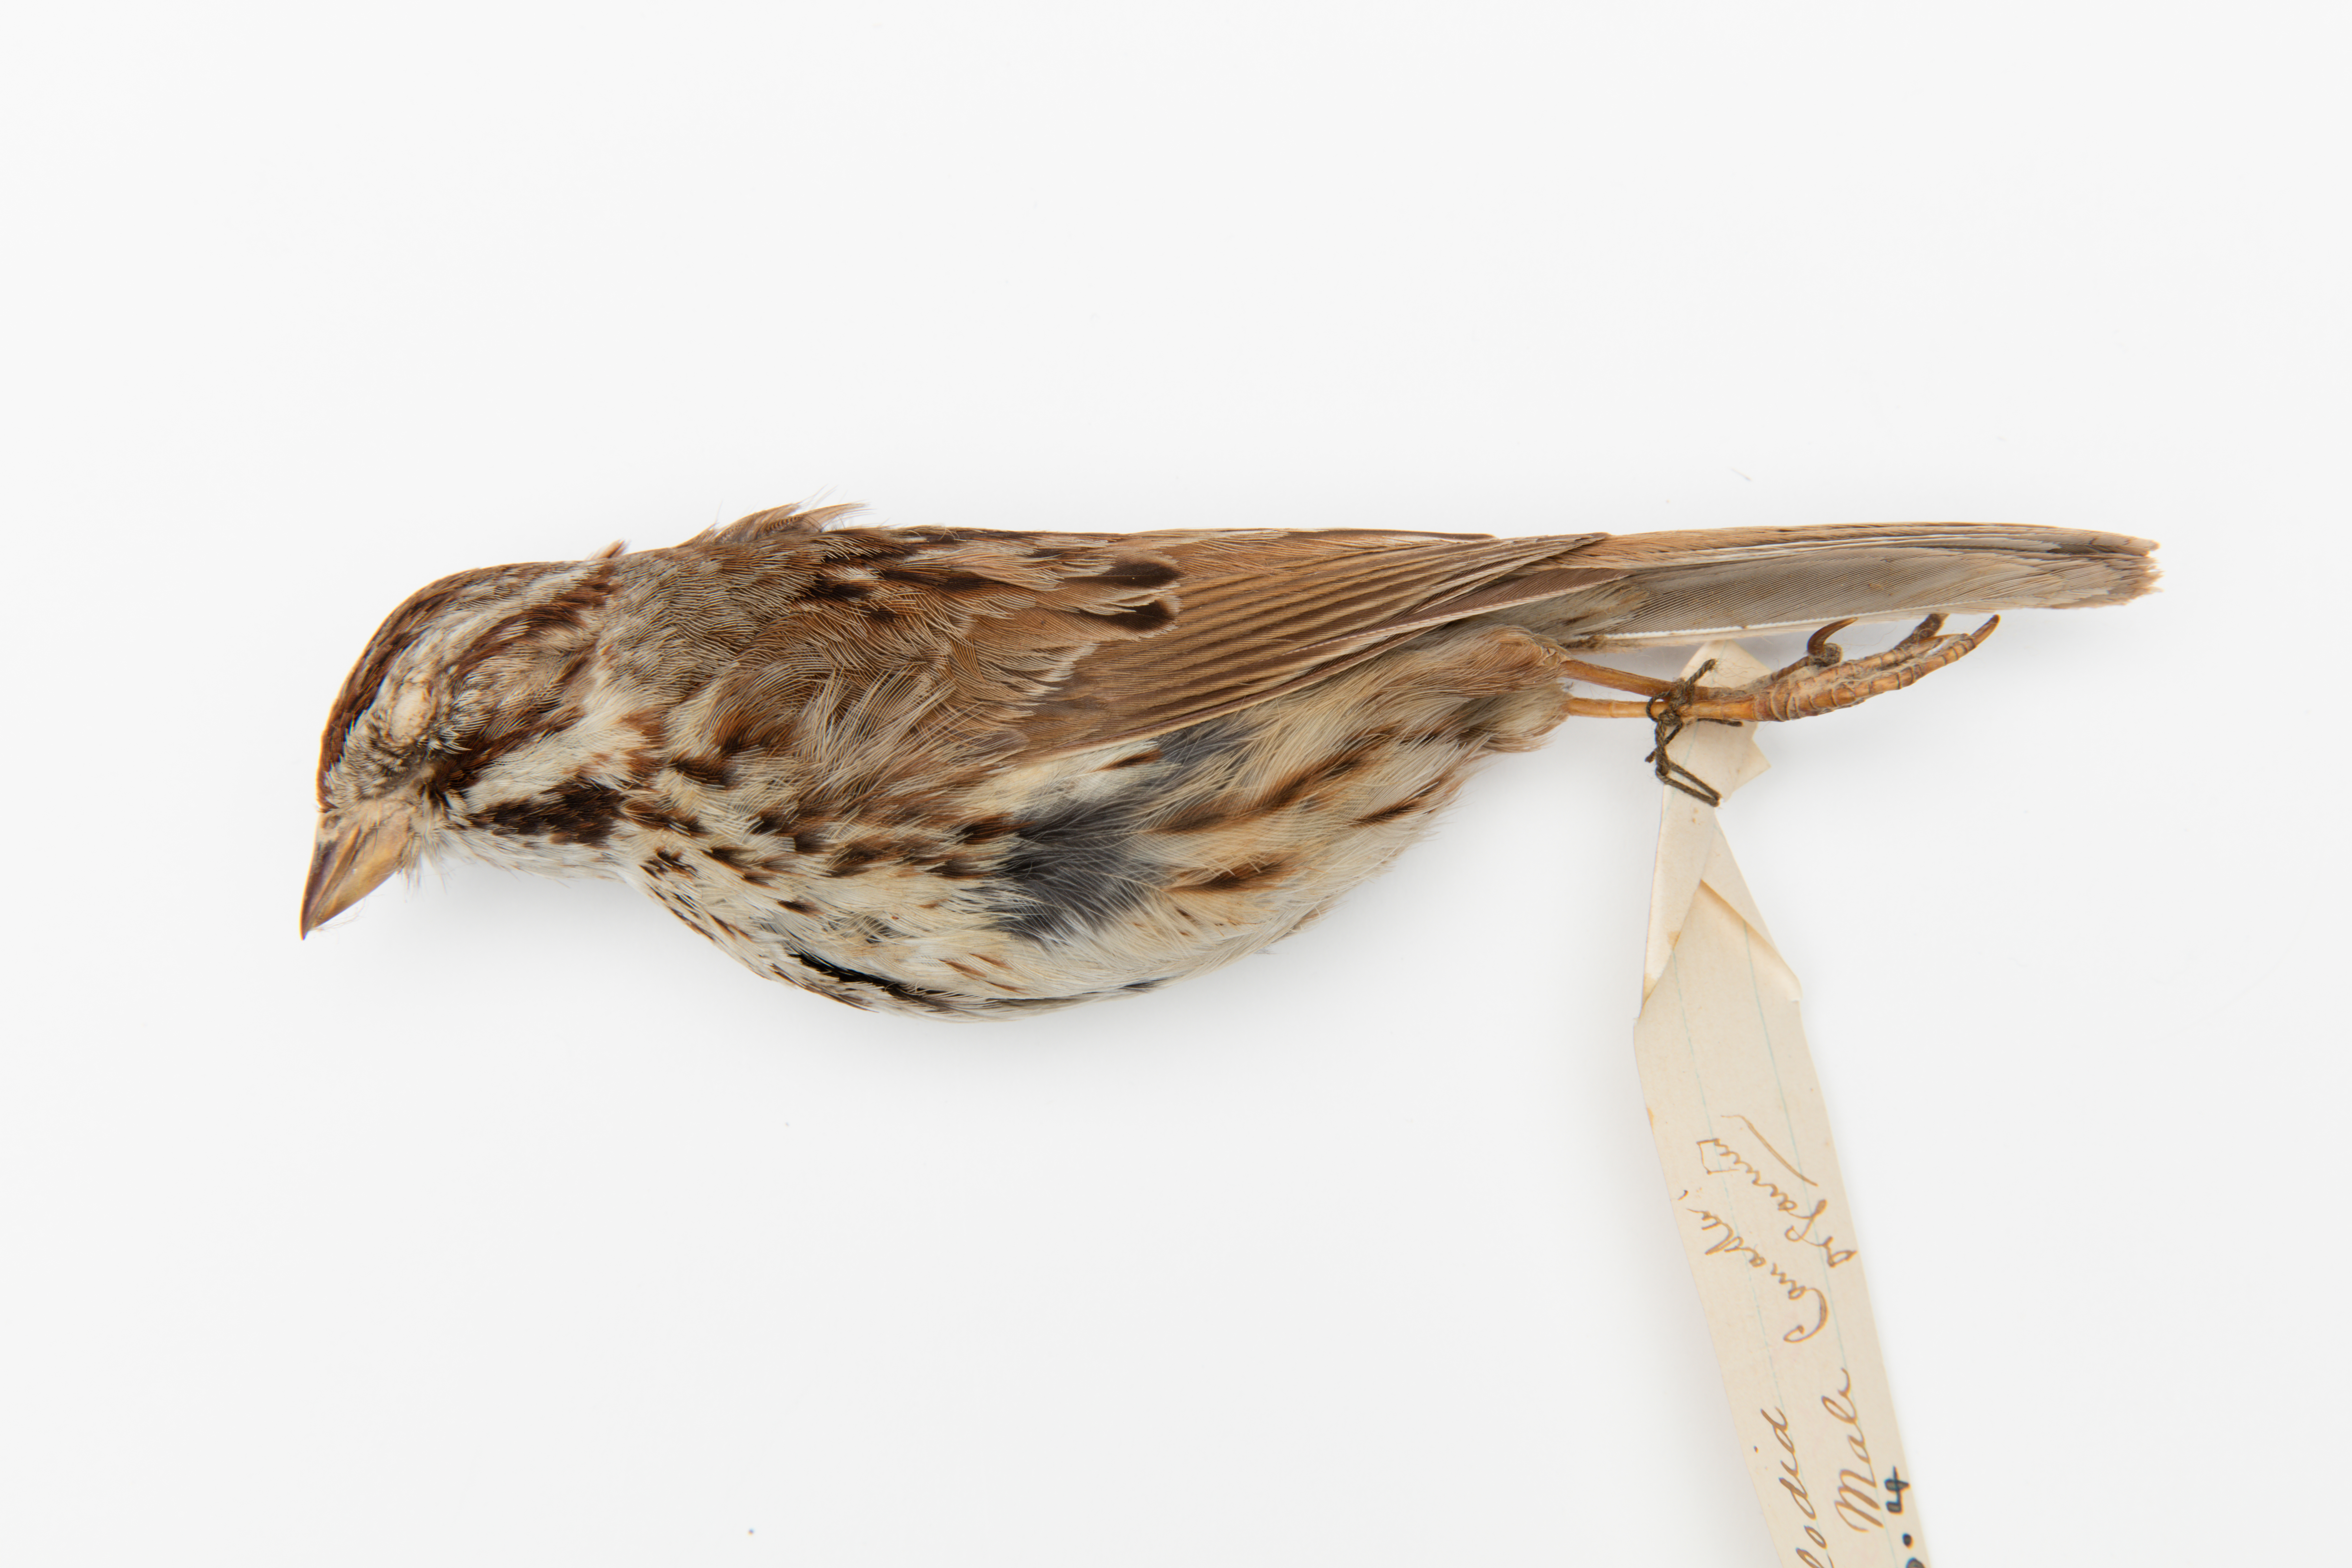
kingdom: Animalia
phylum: Chordata
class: Aves
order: Passeriformes
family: Passerellidae
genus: Melospiza
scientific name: Melospiza melodia
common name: Song sparrow
